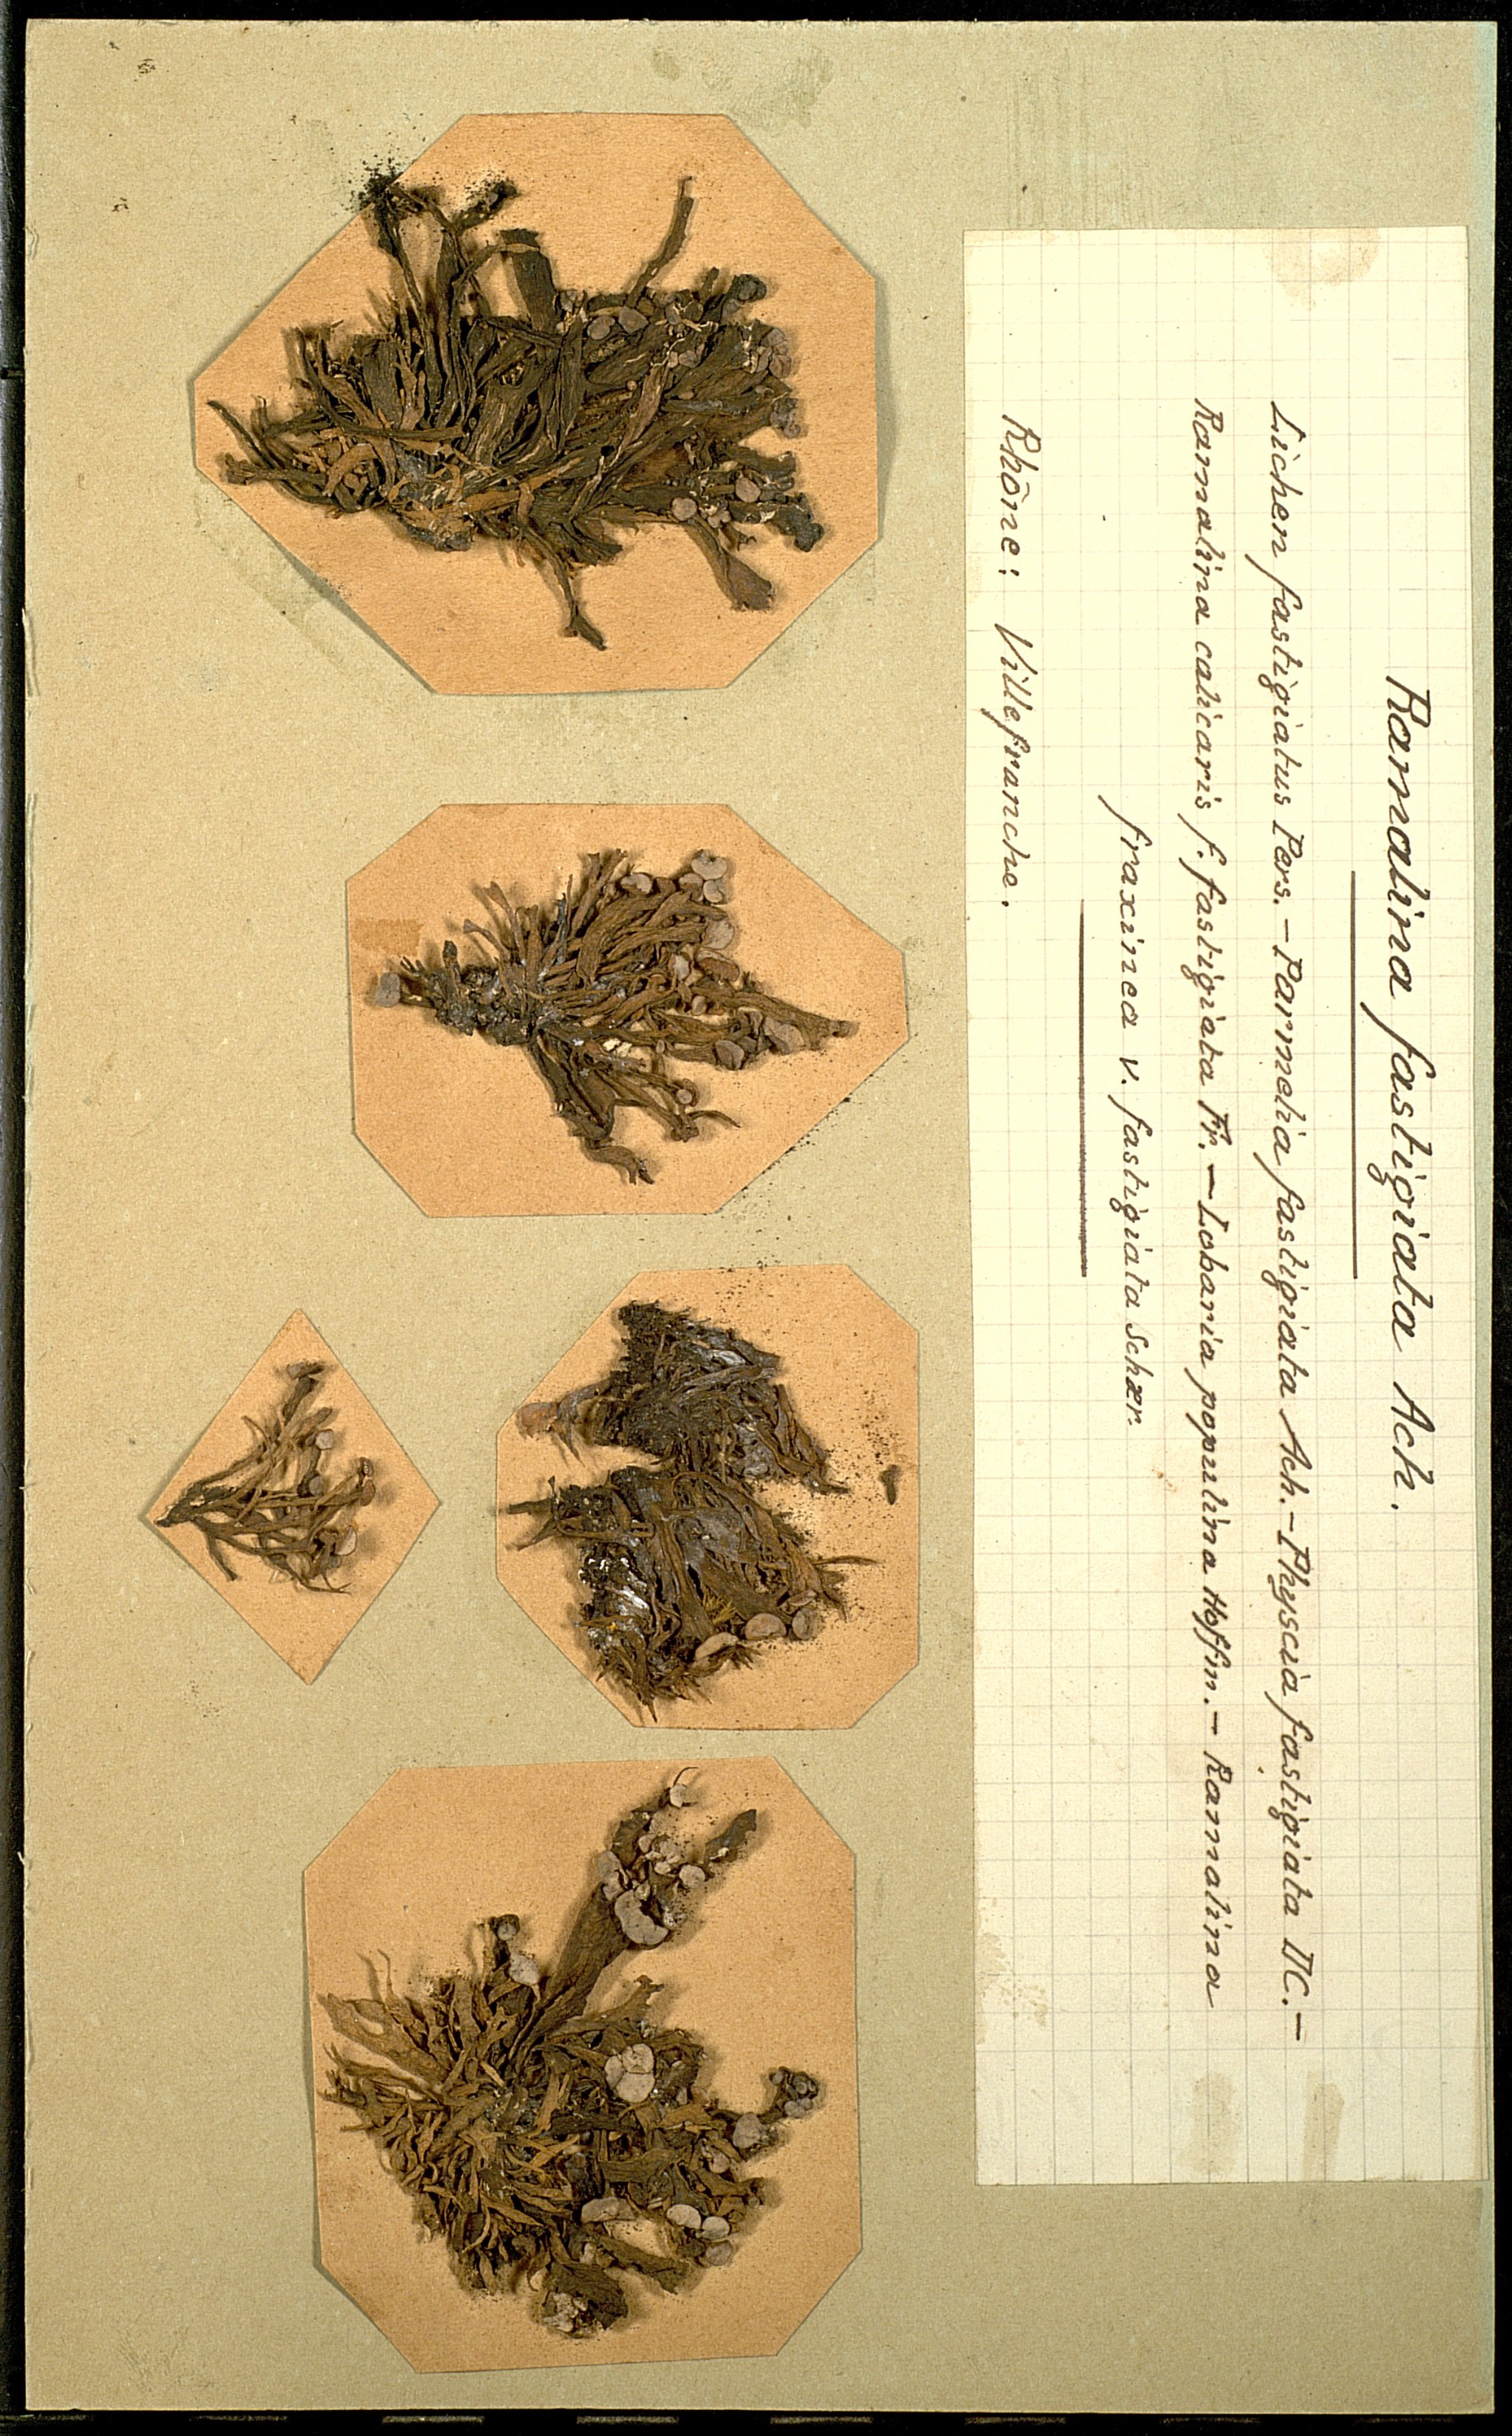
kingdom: Fungi
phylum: Ascomycota
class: Lecanoromycetes
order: Lecanorales
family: Ramalinaceae
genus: Ramalina
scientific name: Ramalina fastigiata
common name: Dotted ribbon lichen
